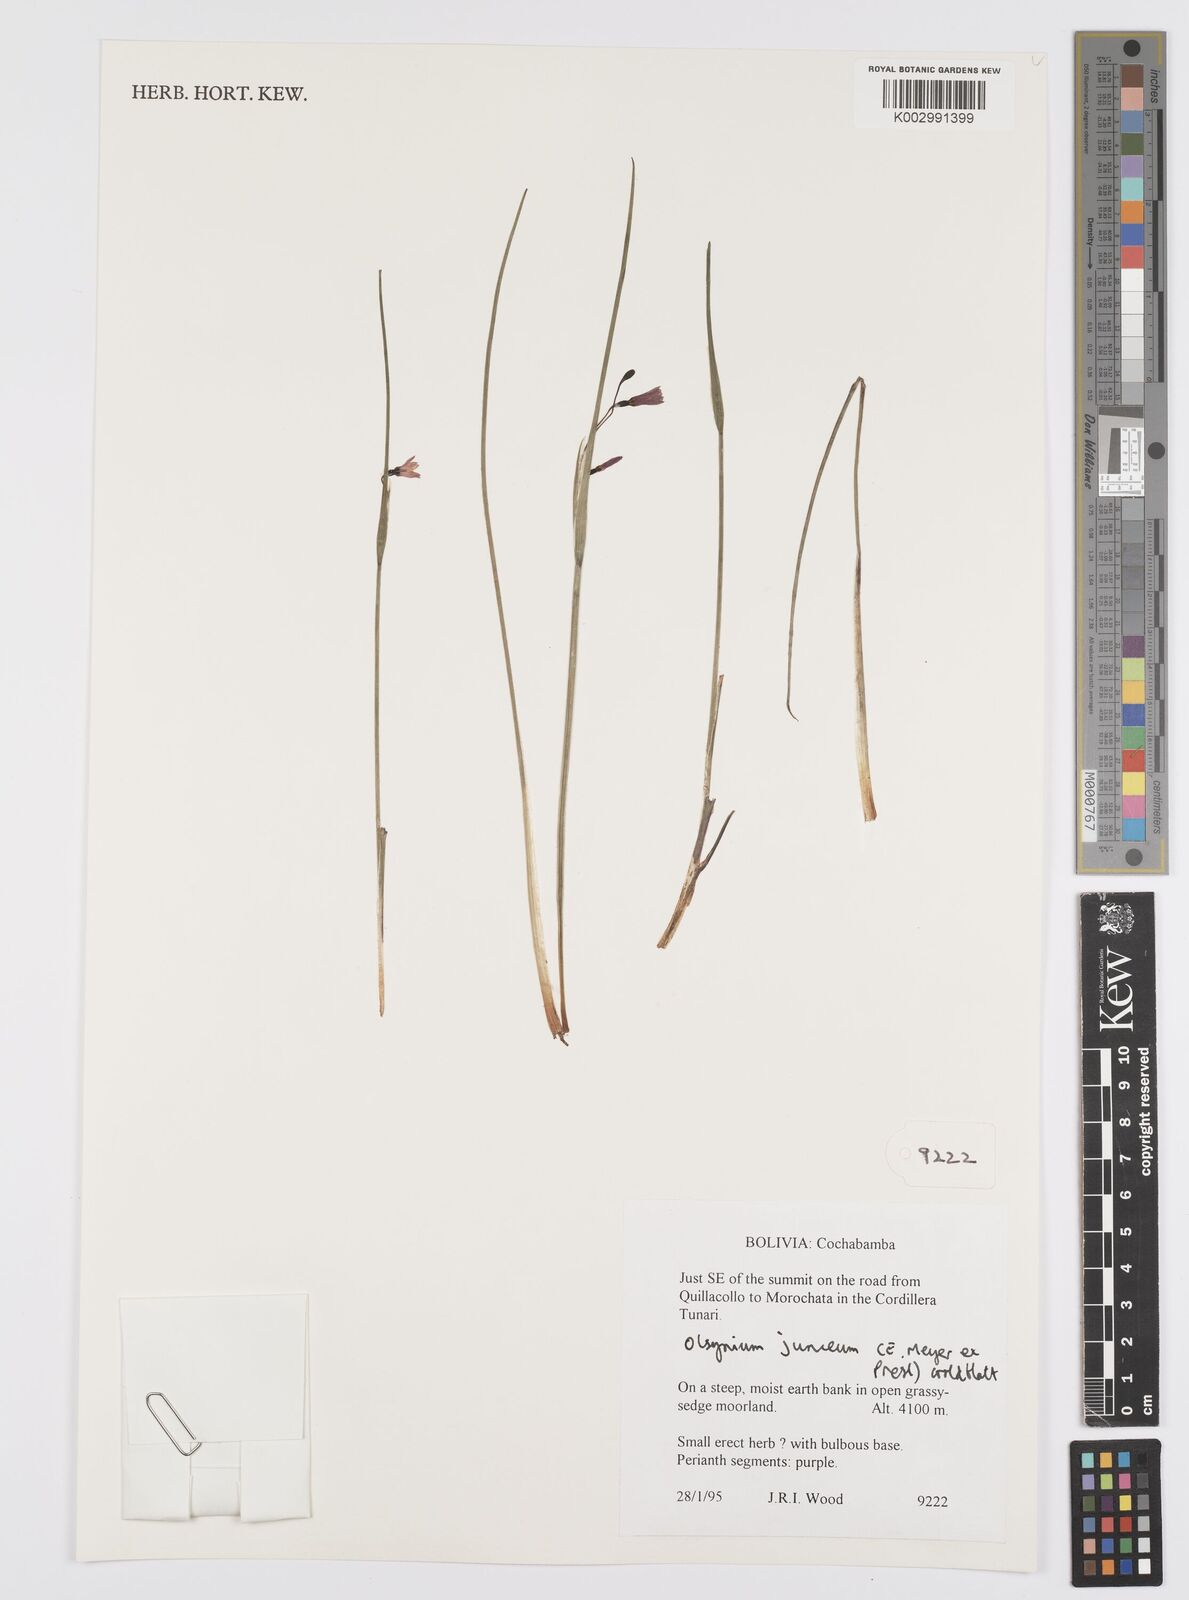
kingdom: Plantae
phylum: Tracheophyta
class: Liliopsida
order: Asparagales
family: Iridaceae
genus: Olsynium
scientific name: Olsynium junceum
